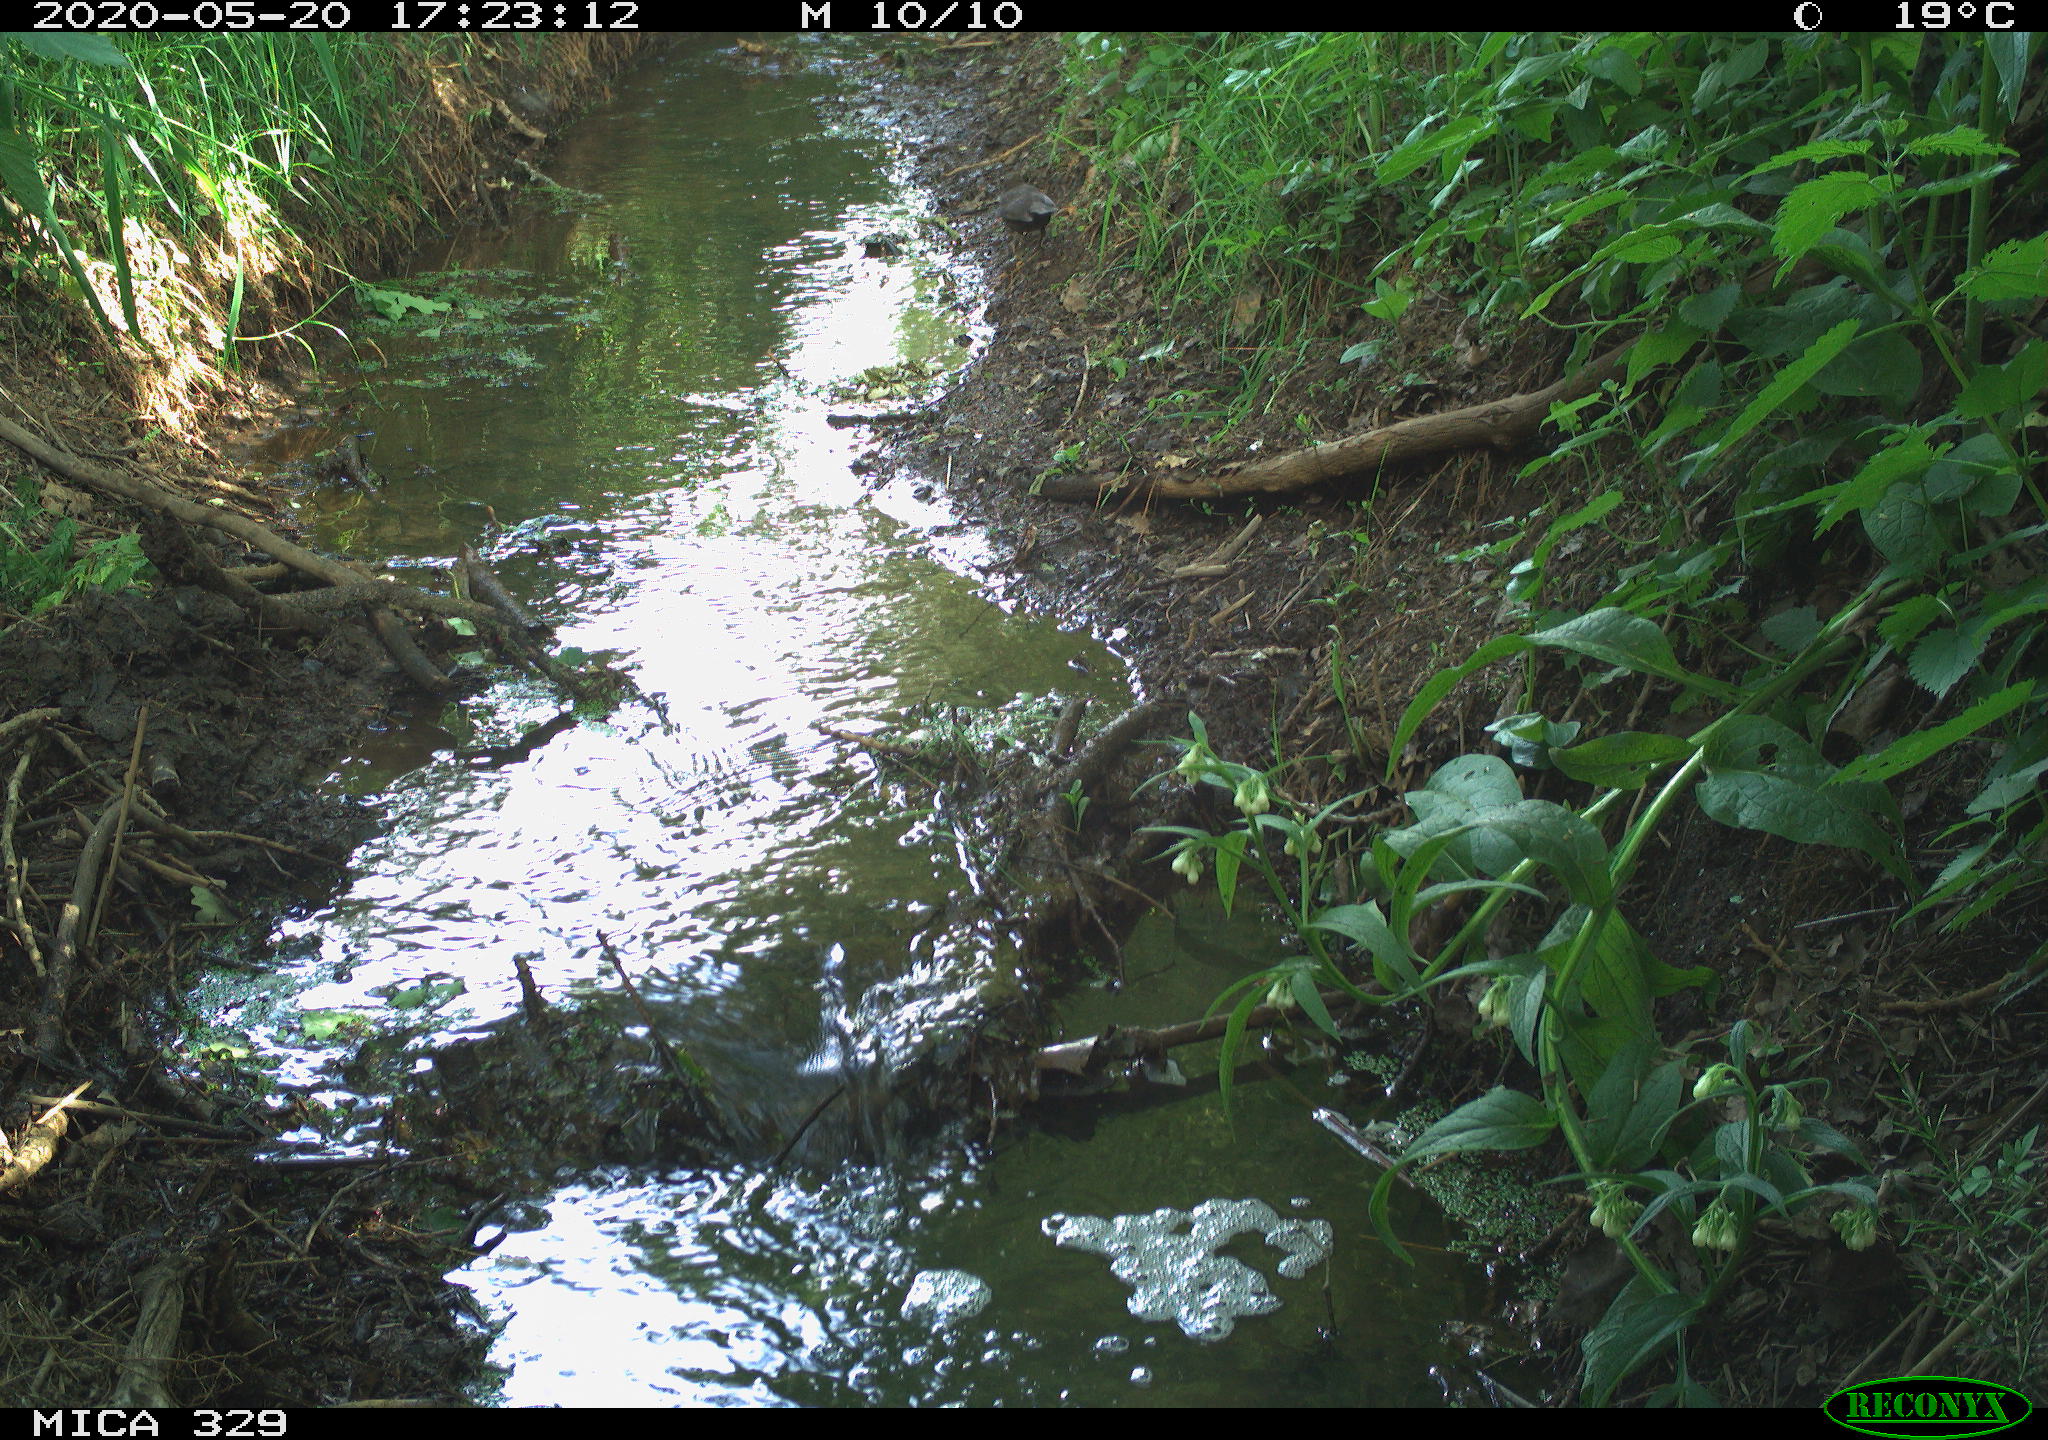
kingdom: Animalia
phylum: Chordata
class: Aves
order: Passeriformes
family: Turdidae
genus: Turdus
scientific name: Turdus merula
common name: Common blackbird
